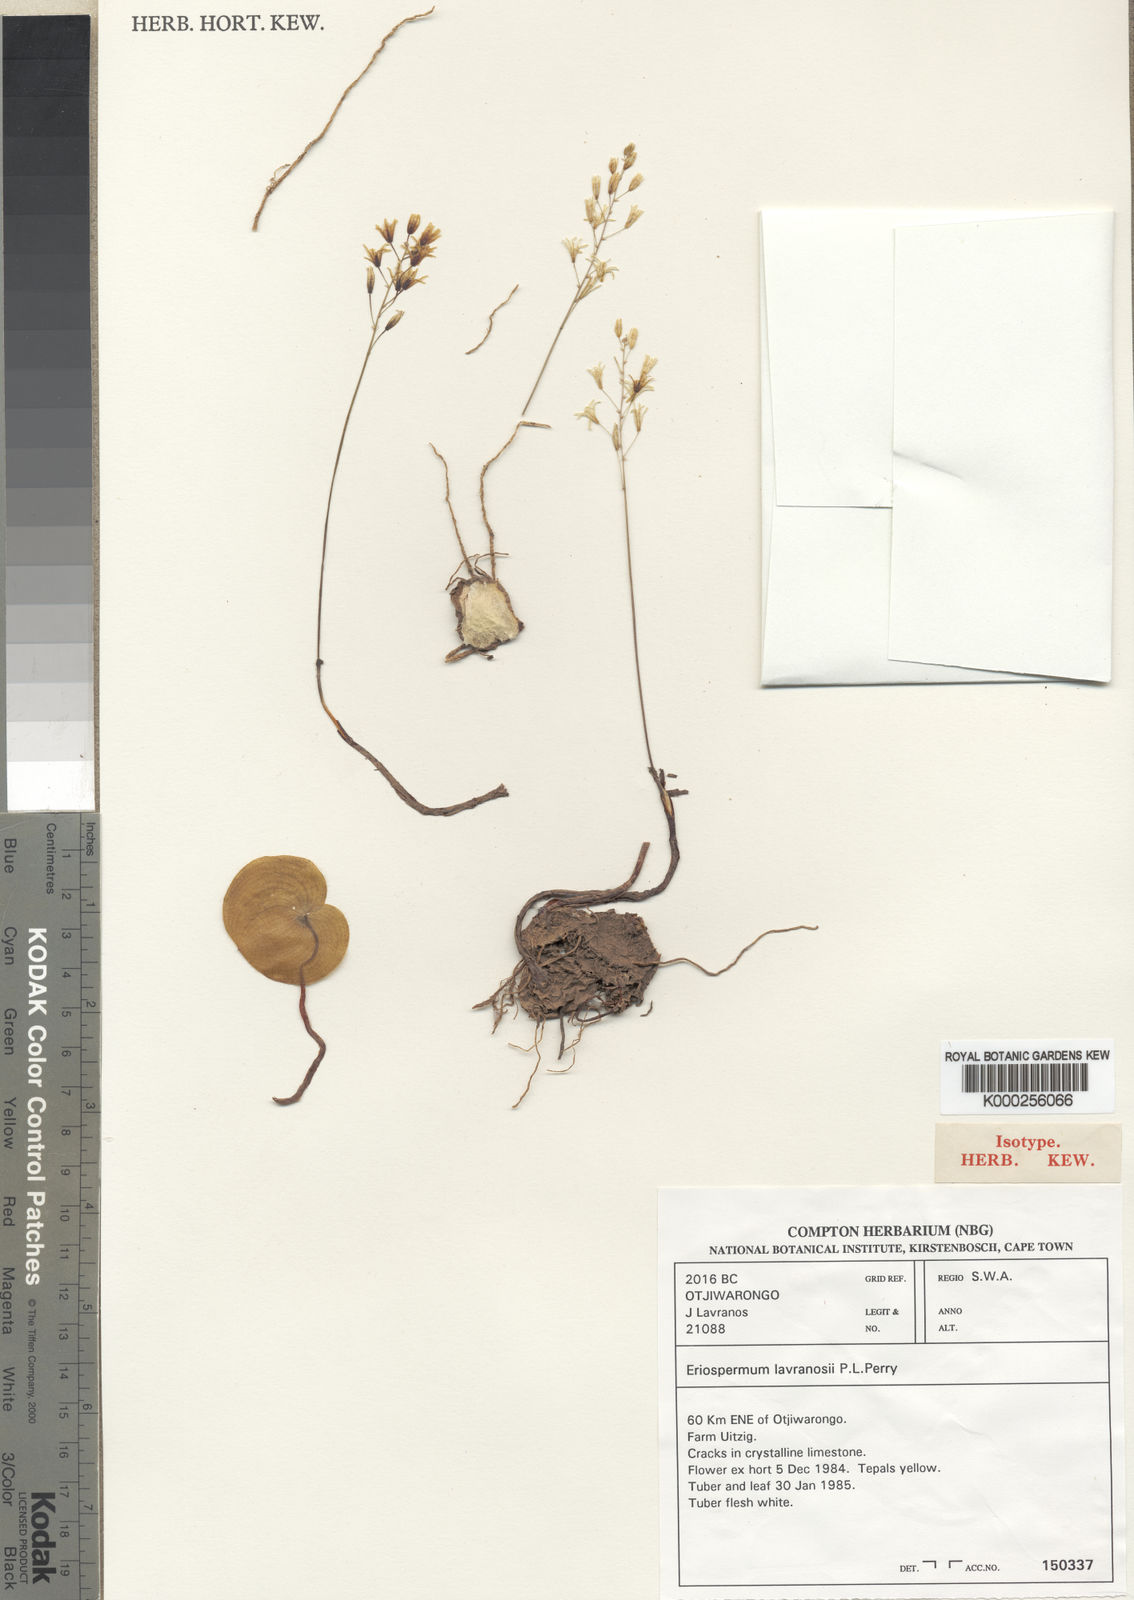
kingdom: Plantae
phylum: Tracheophyta
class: Liliopsida
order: Asparagales
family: Asparagaceae
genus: Eriospermum
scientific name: Eriospermum lavranosii
